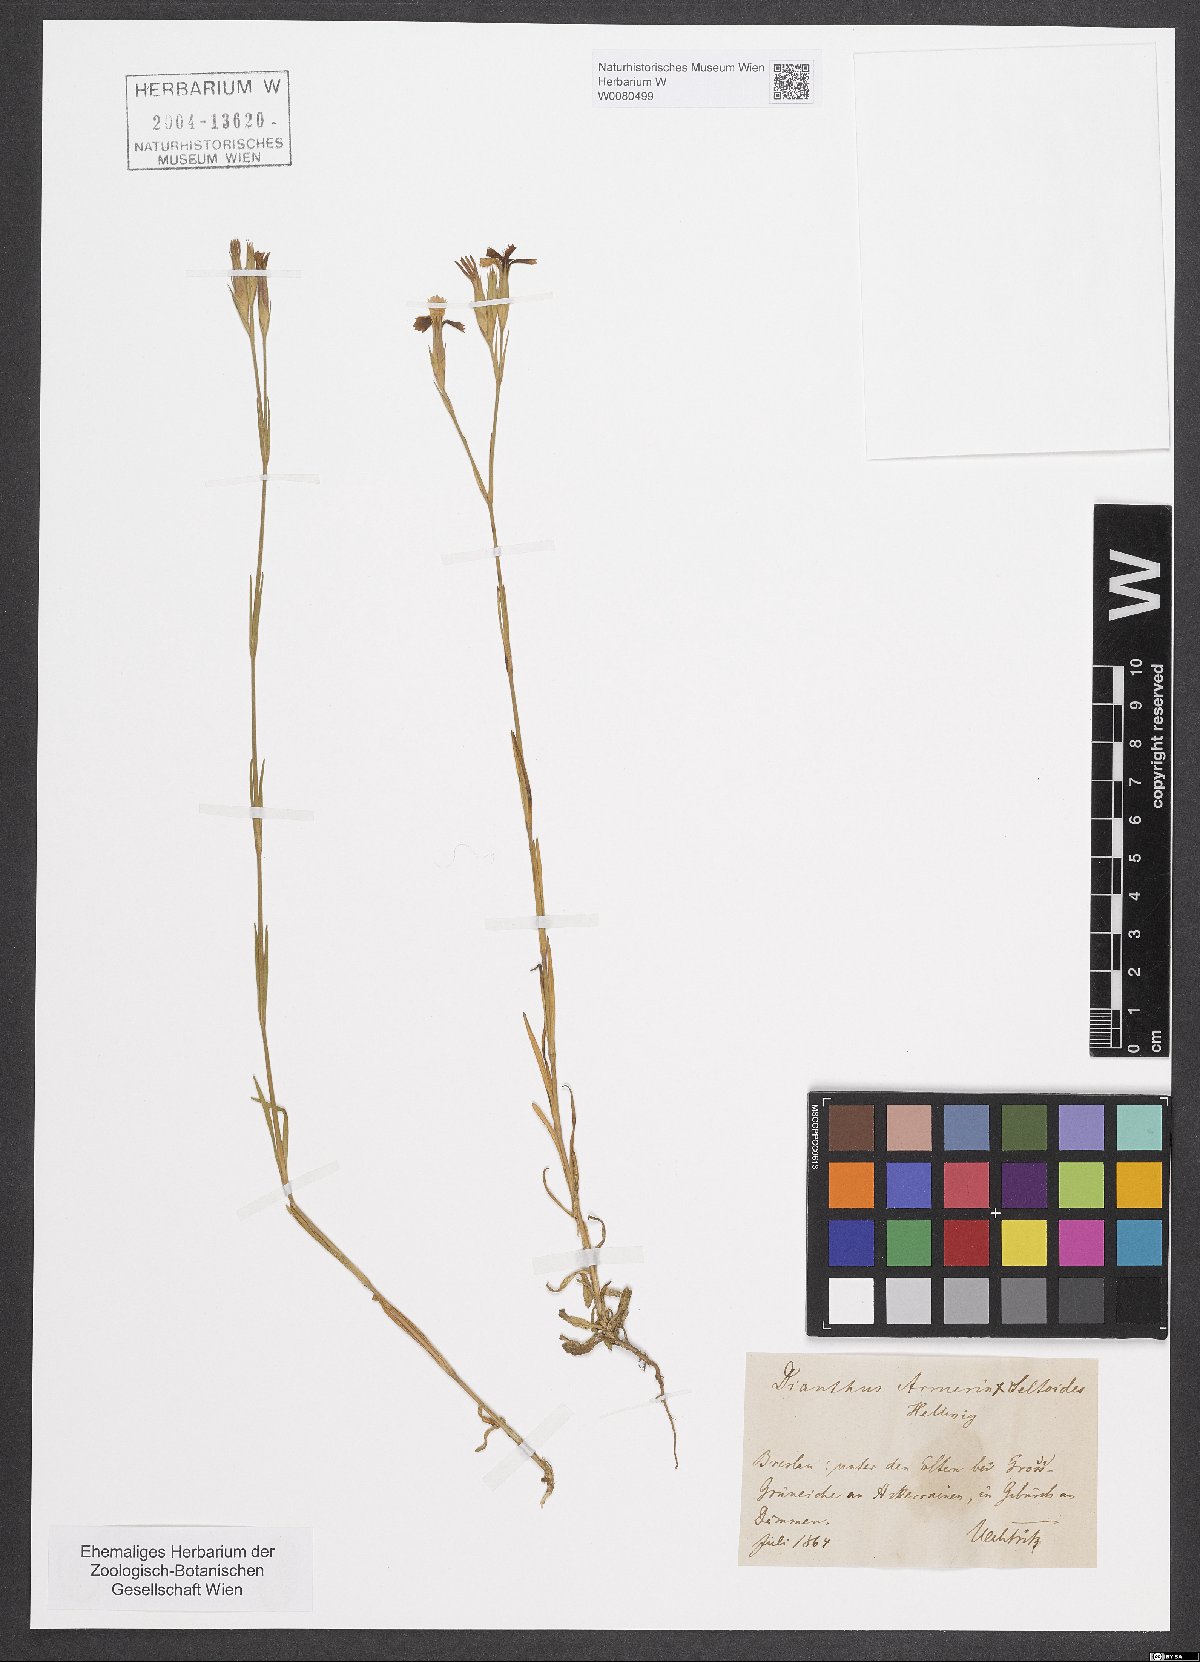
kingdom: Plantae
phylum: Tracheophyta
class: Magnoliopsida
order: Caryophyllales
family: Caryophyllaceae
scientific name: Caryophyllaceae
